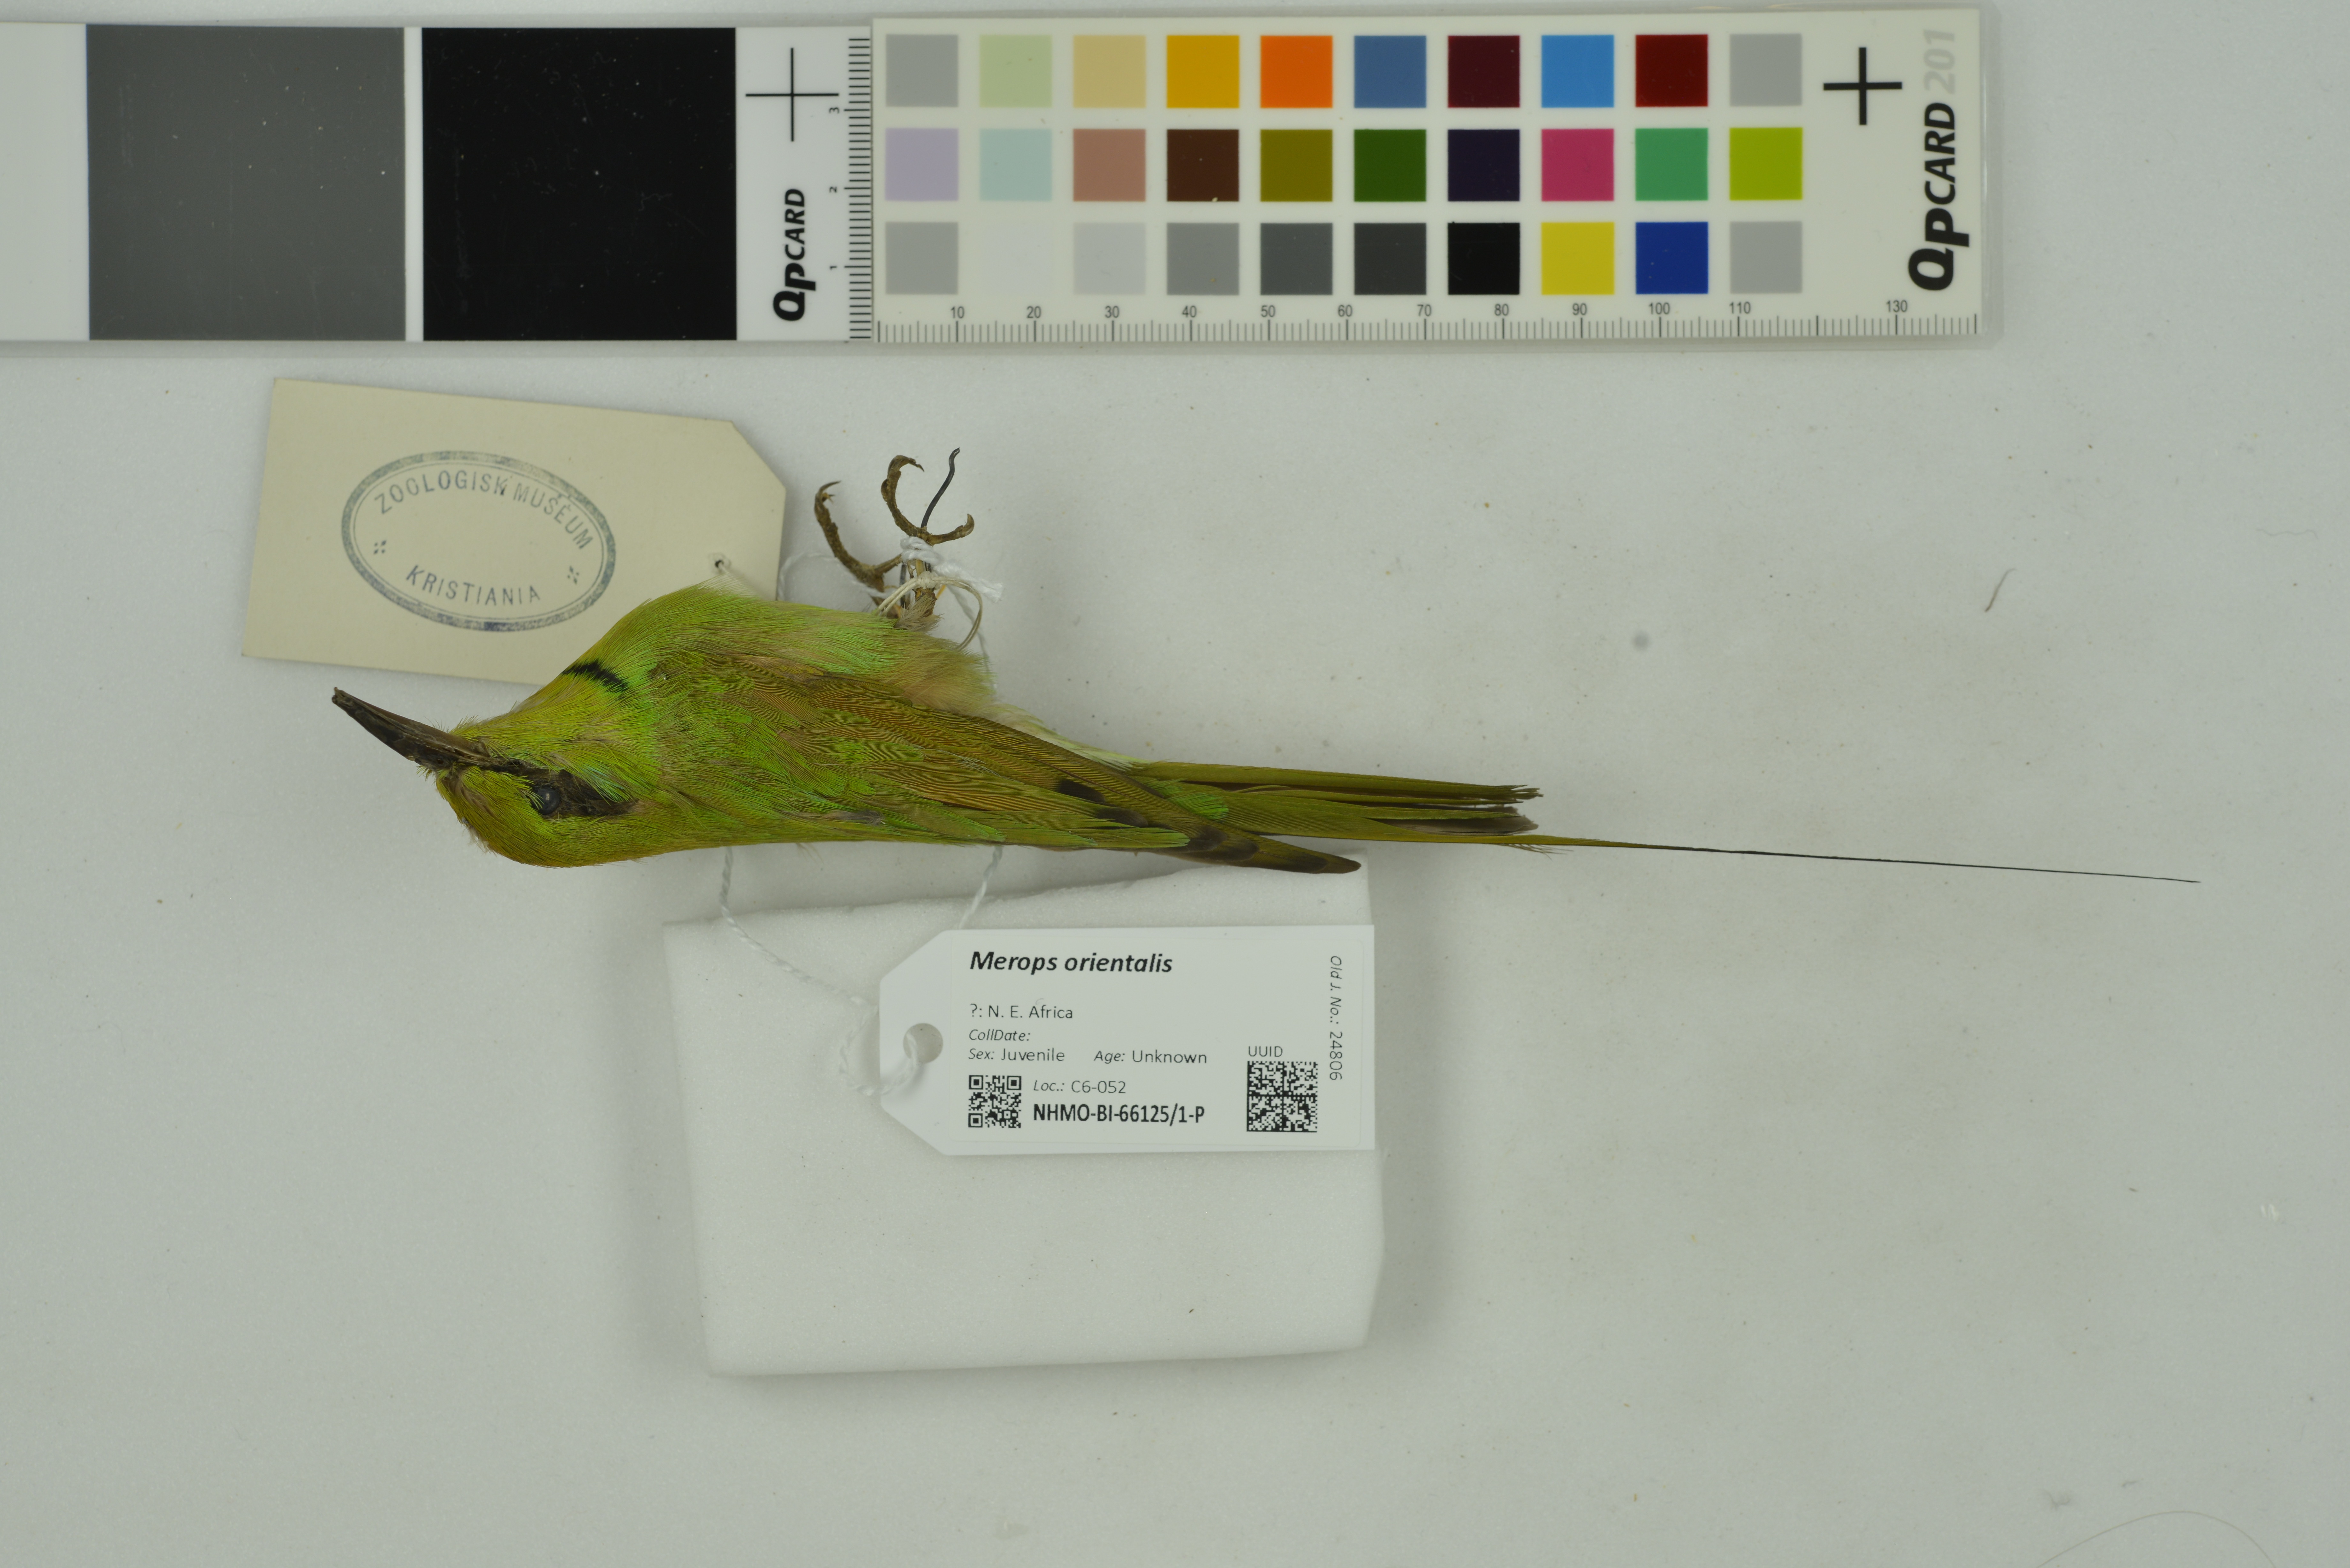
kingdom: Animalia
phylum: Chordata
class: Aves
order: Coraciiformes
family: Meropidae
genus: Merops
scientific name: Merops orientalis
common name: Green bee-eater
